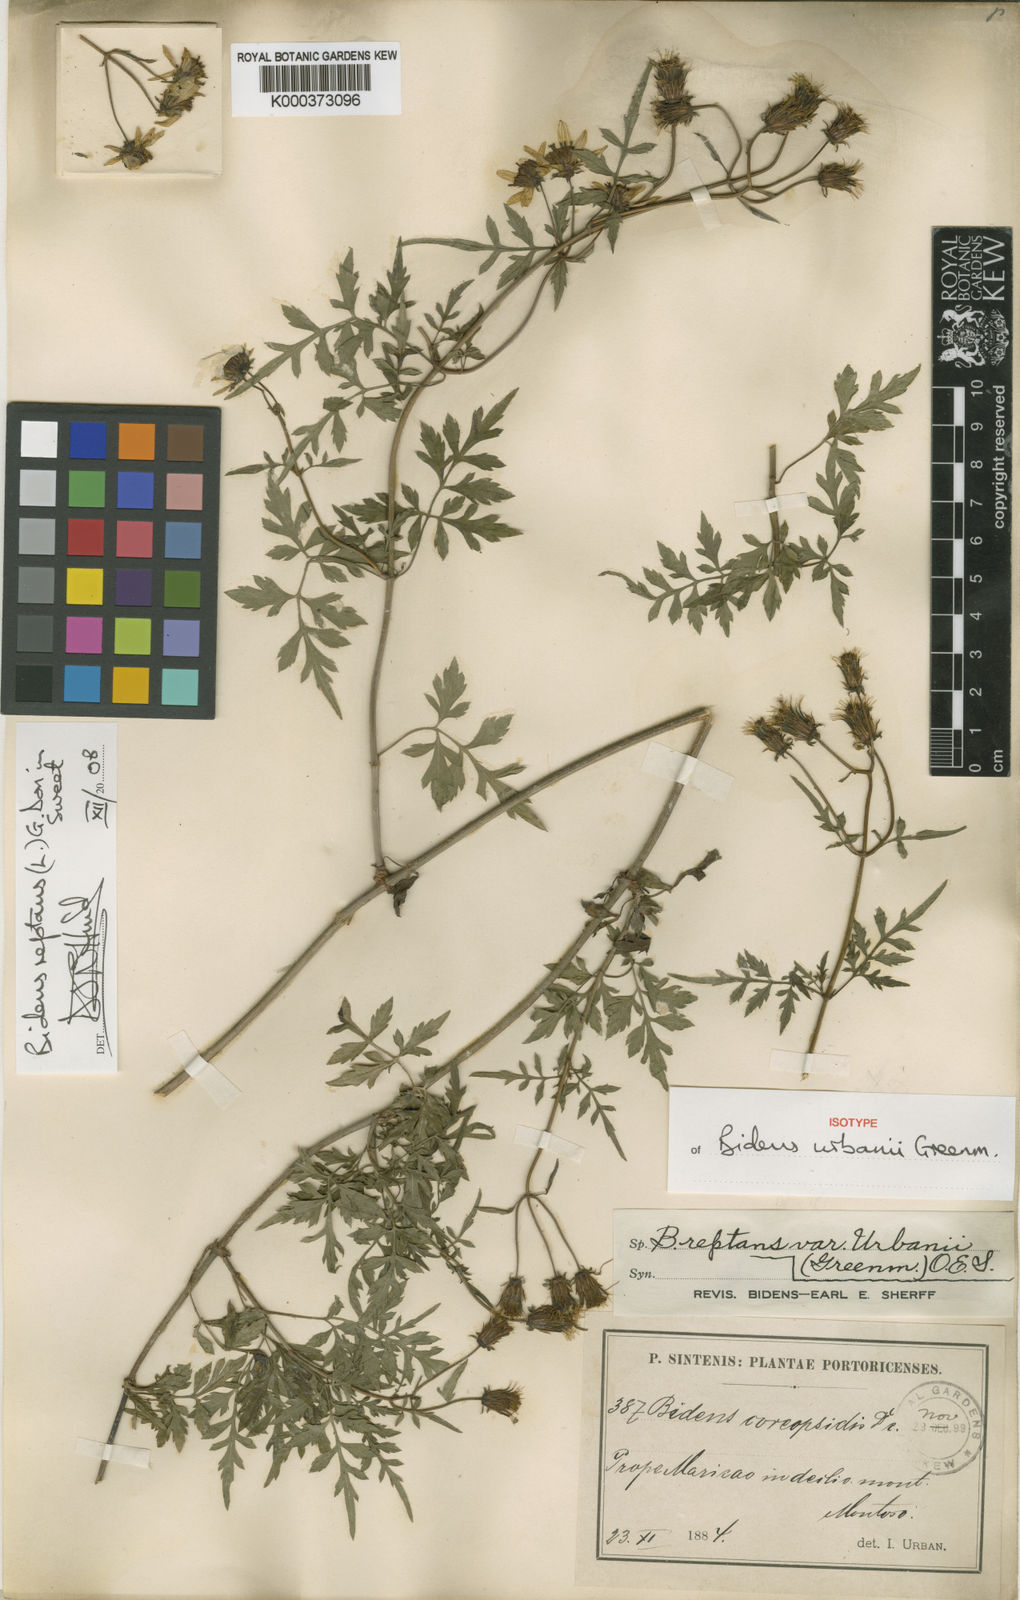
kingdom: Plantae
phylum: Tracheophyta
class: Magnoliopsida
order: Asterales
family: Asteraceae
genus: Bidens
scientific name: Bidens reptans
